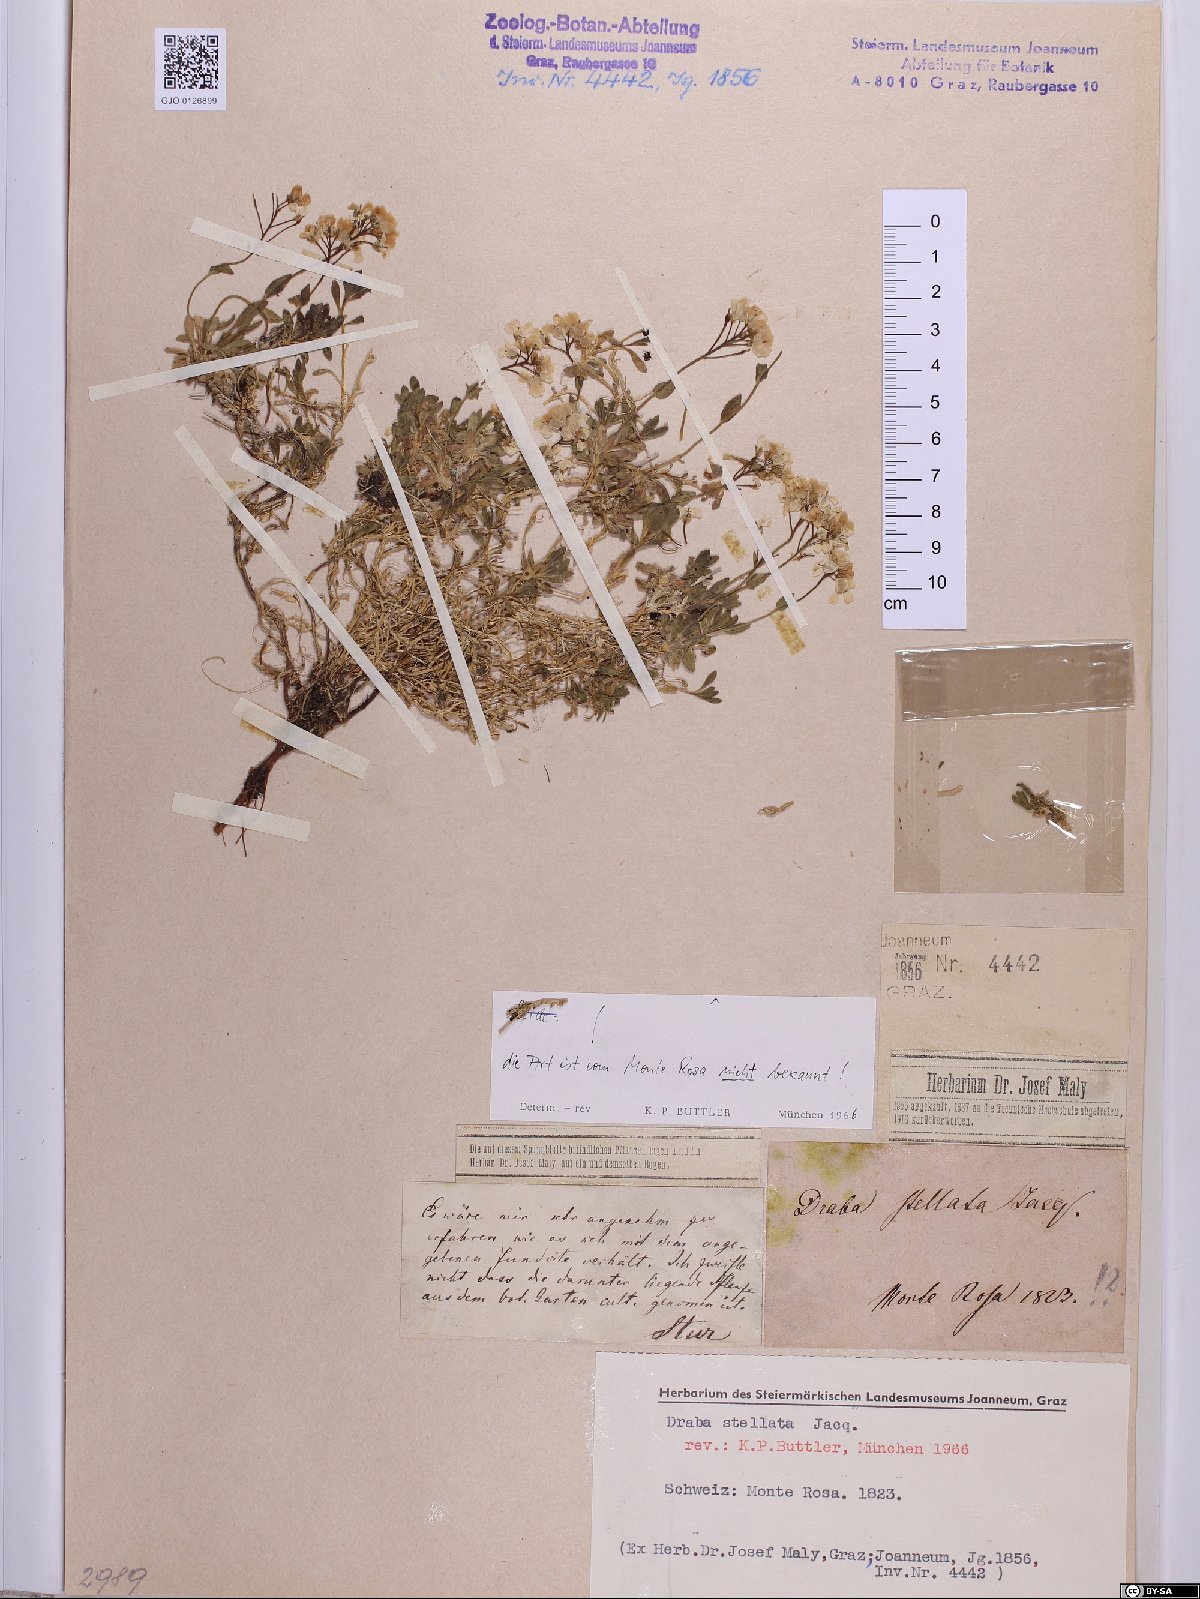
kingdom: Plantae
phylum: Tracheophyta
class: Magnoliopsida
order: Brassicales
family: Brassicaceae
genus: Draba
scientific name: Draba stellata
